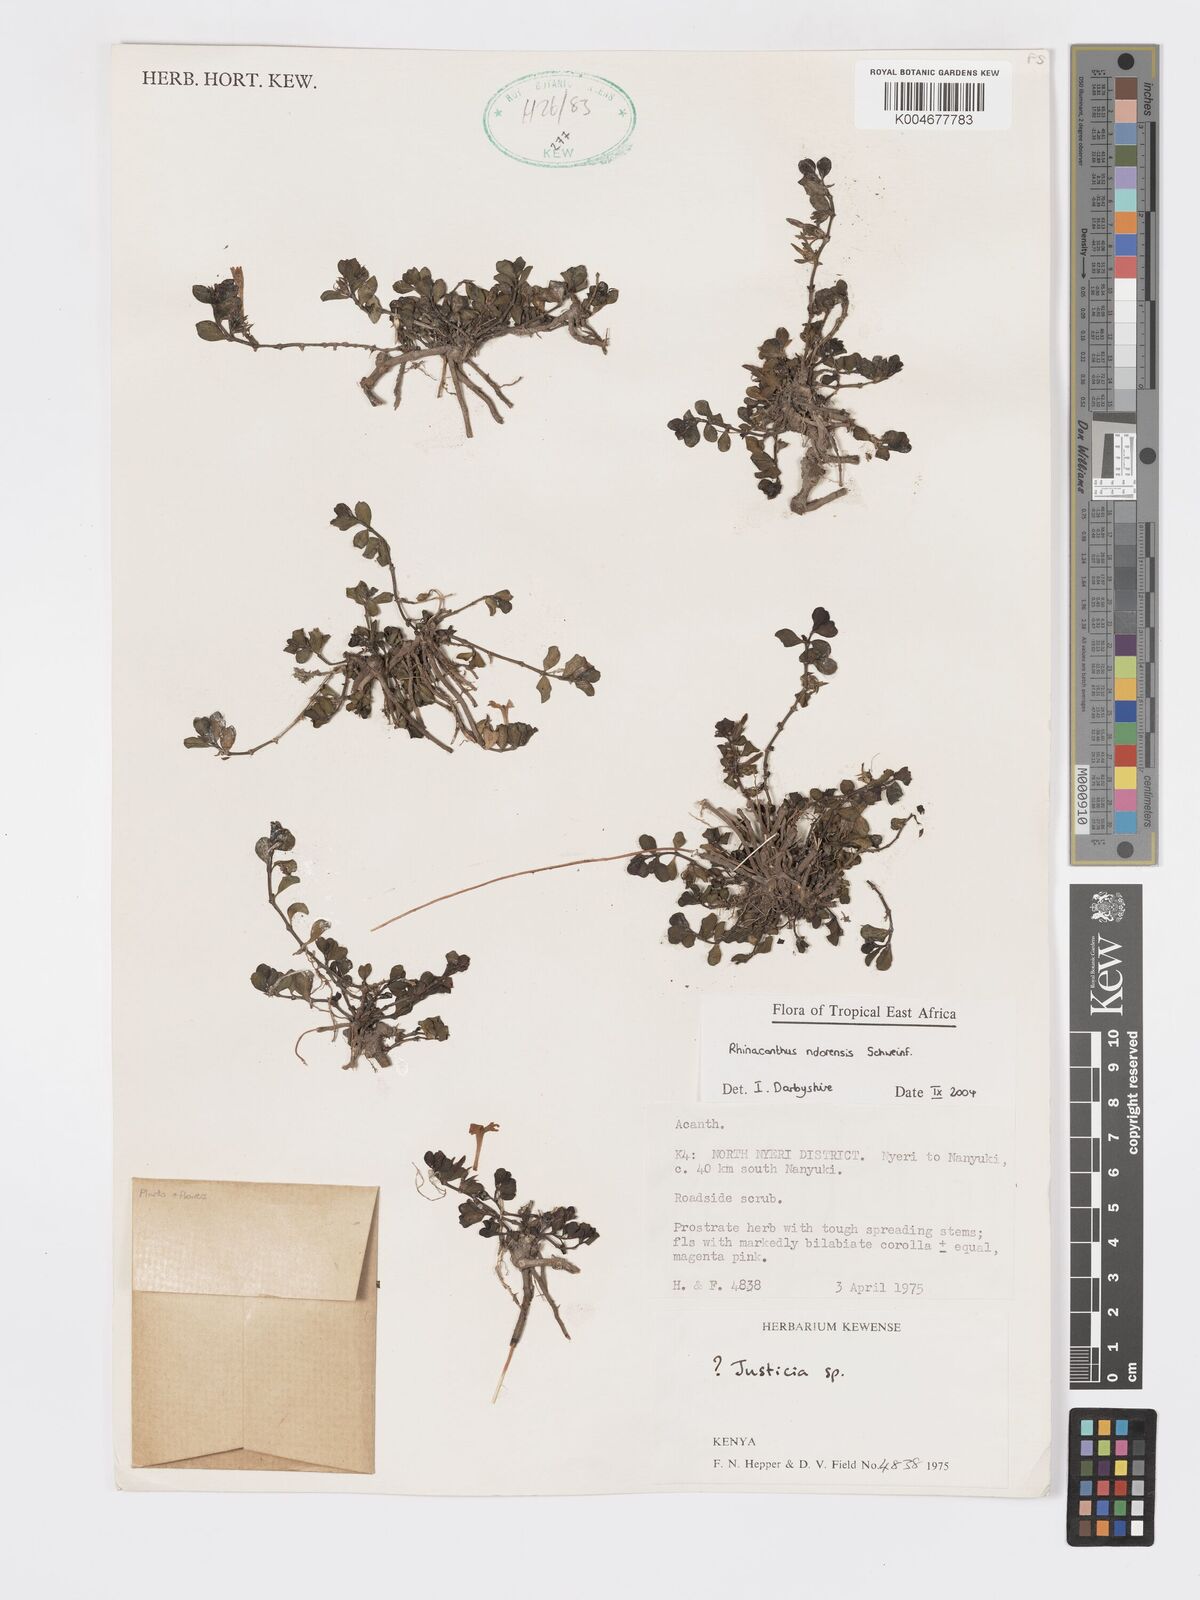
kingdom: Plantae
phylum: Tracheophyta
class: Magnoliopsida
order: Lamiales
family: Acanthaceae
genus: Kenyacanthus
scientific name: Kenyacanthus ndorensis
